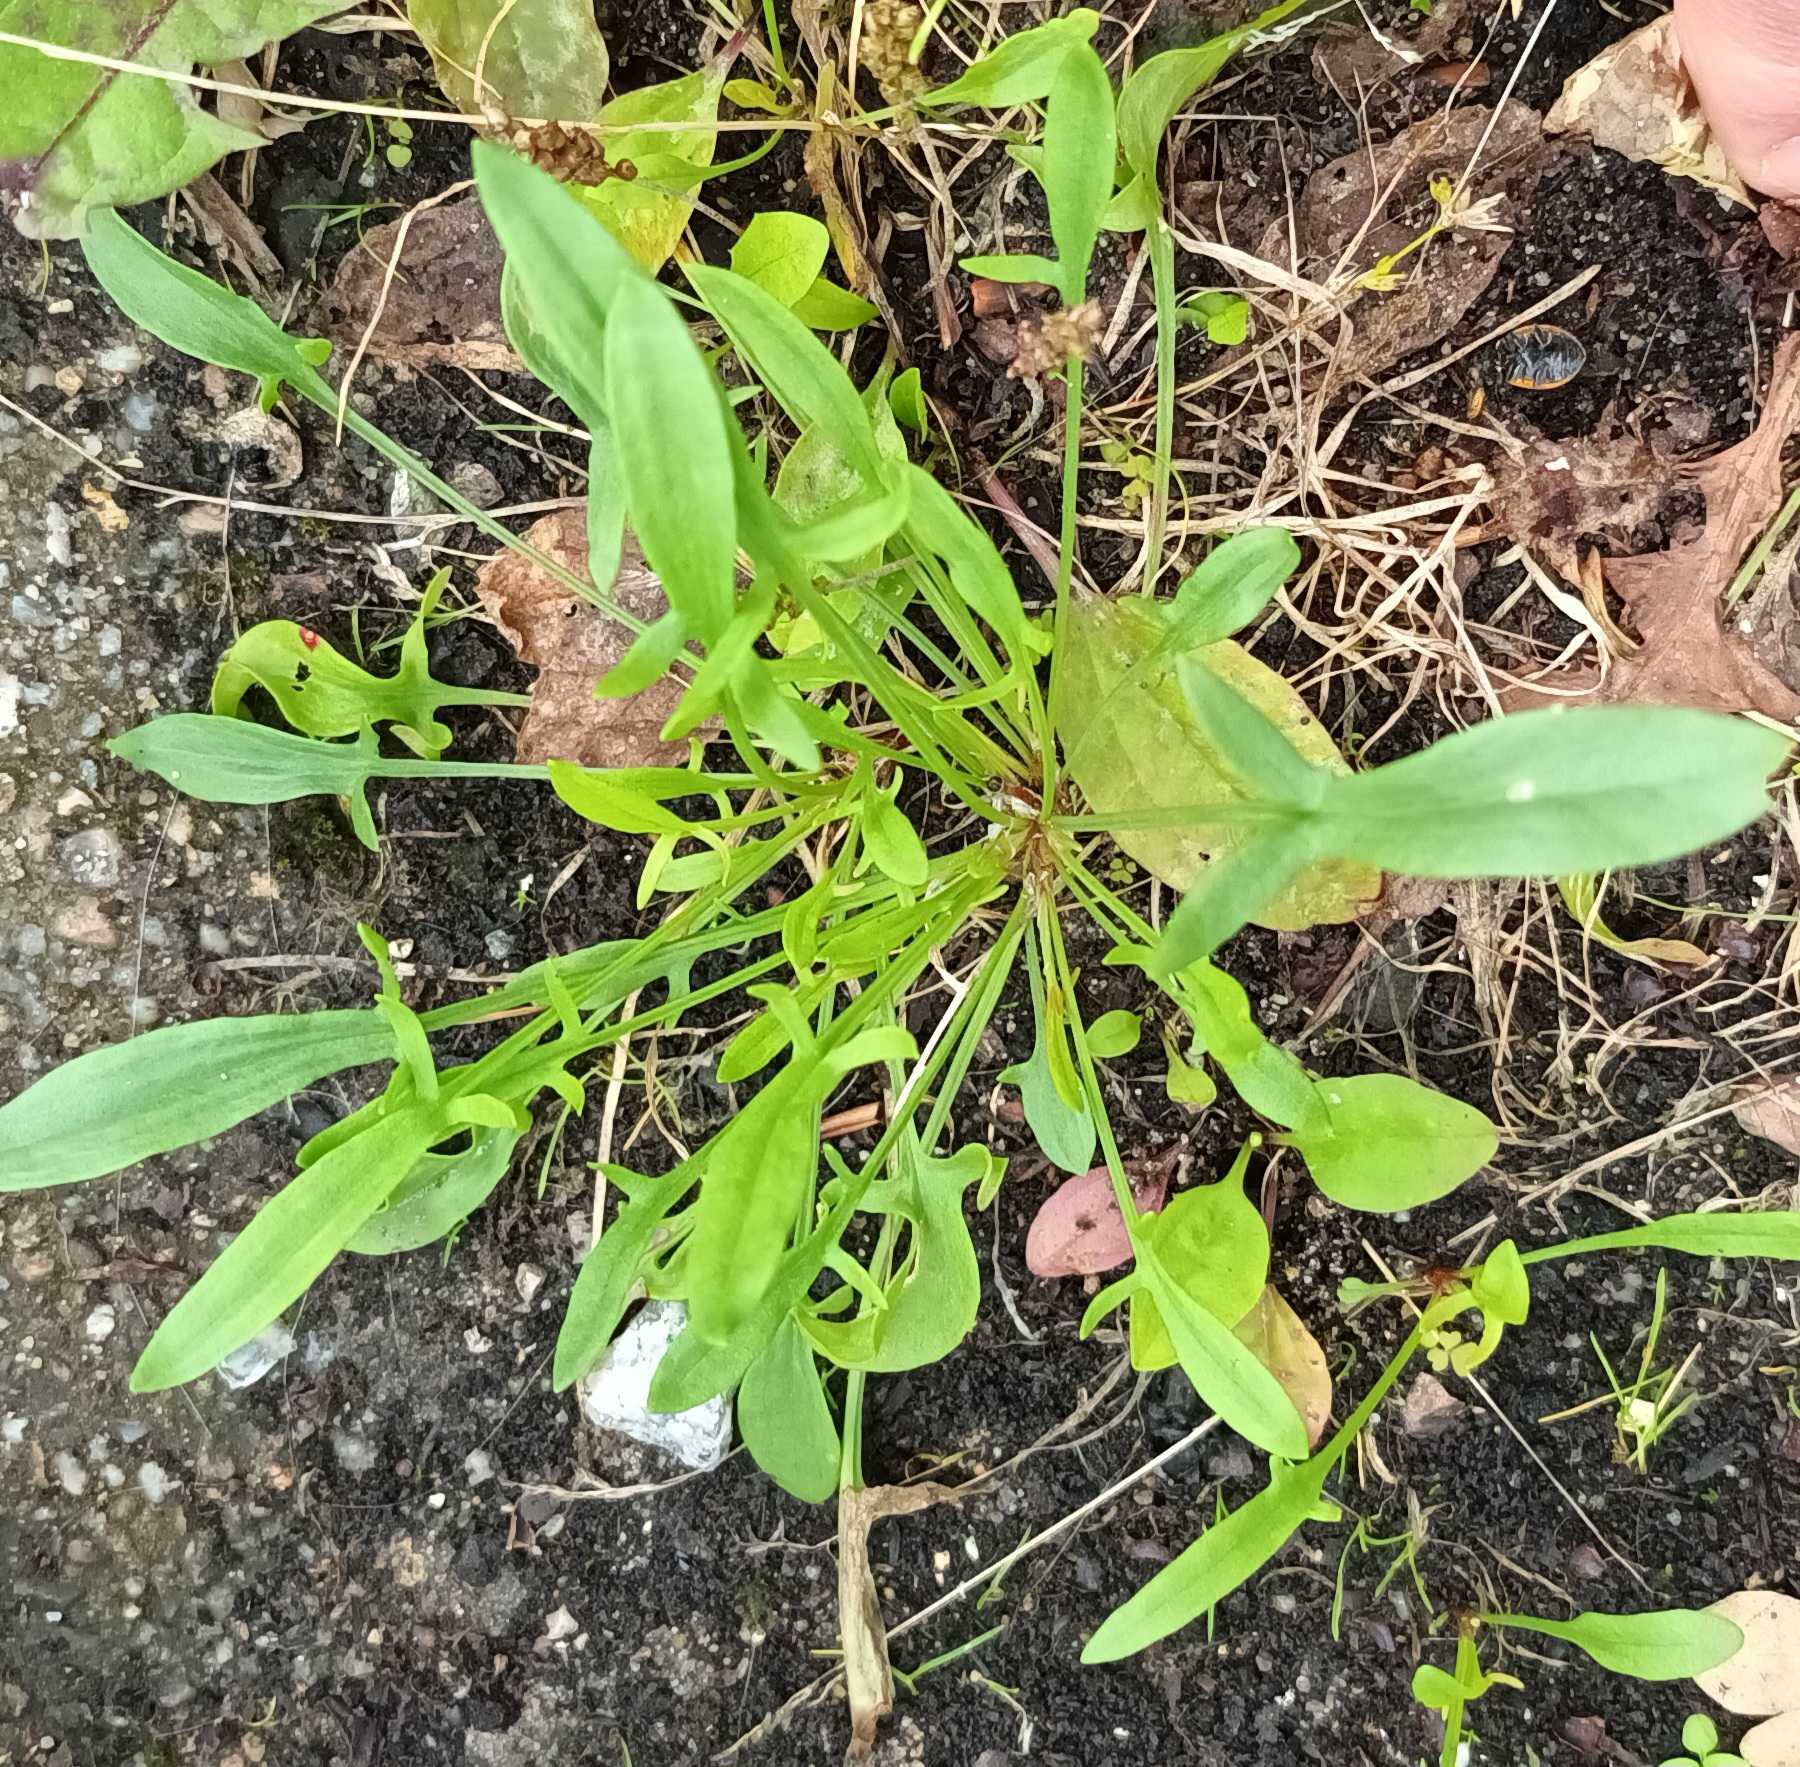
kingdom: Plantae
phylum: Tracheophyta
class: Magnoliopsida
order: Caryophyllales
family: Polygonaceae
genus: Rumex
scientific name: Rumex acetosella
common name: Rødknæ
